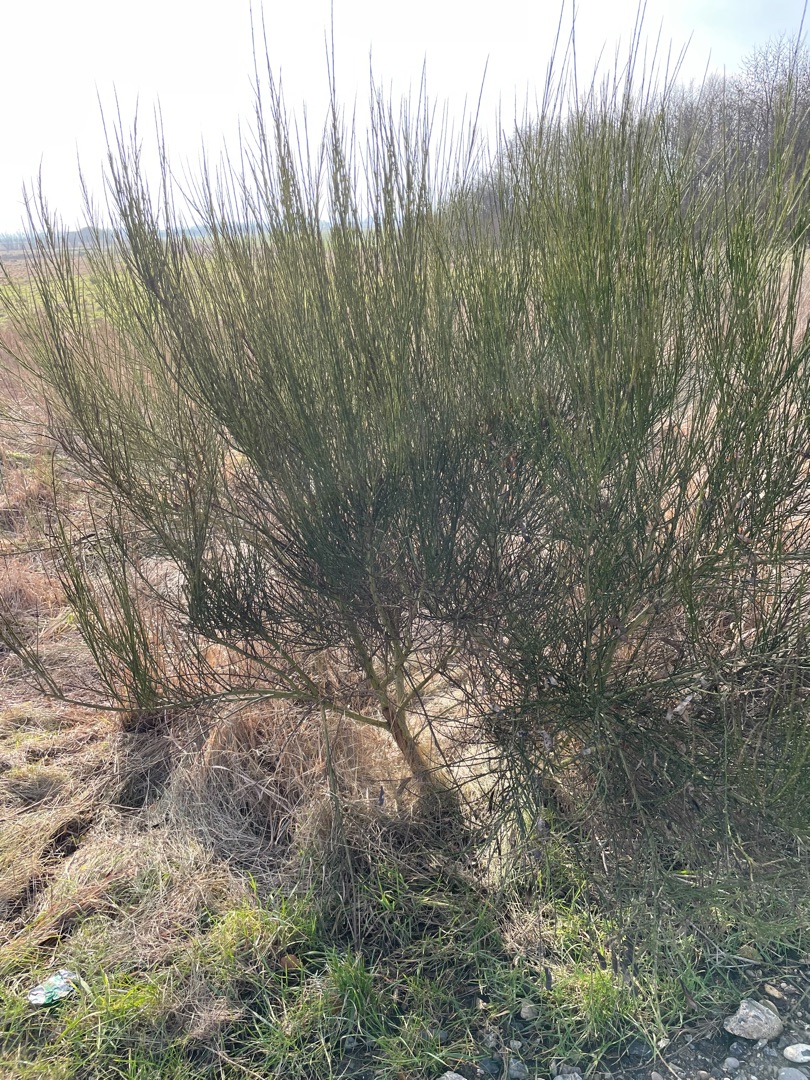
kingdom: Plantae
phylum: Tracheophyta
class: Magnoliopsida
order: Fabales
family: Fabaceae
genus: Cytisus
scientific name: Cytisus scoparius
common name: Almindelig gyvel
